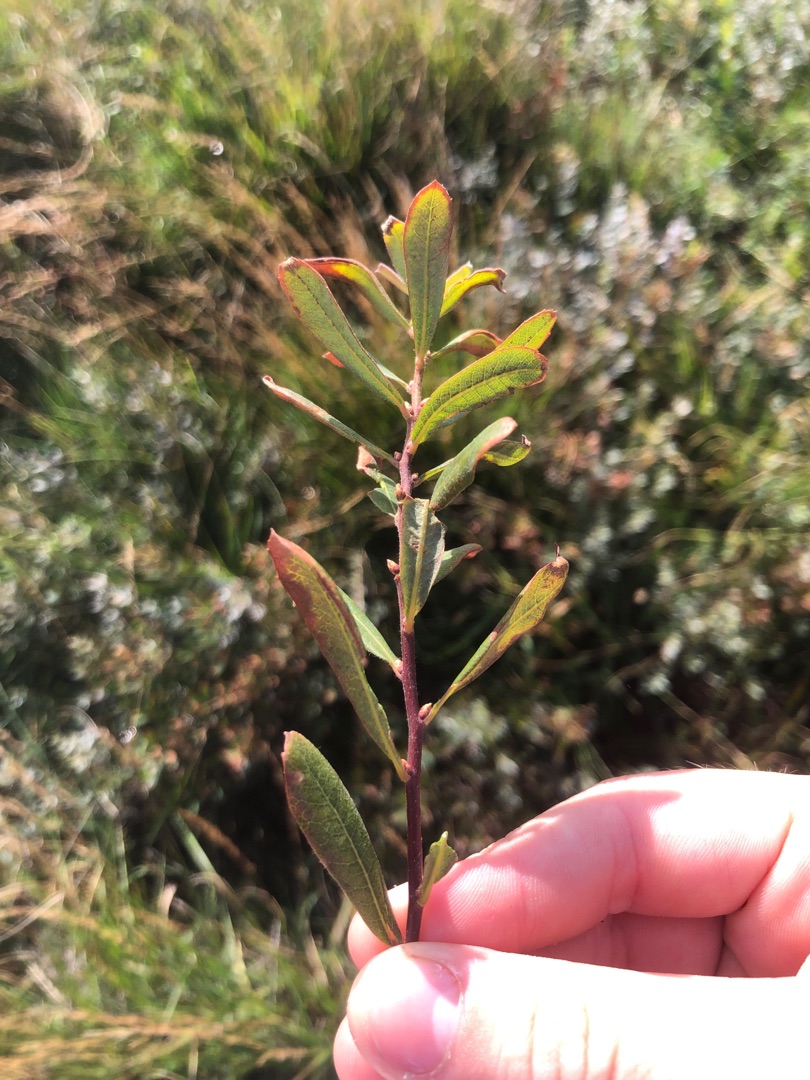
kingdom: Plantae
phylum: Tracheophyta
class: Magnoliopsida
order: Fagales
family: Myricaceae
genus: Myrica
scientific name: Myrica gale
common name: Pors
